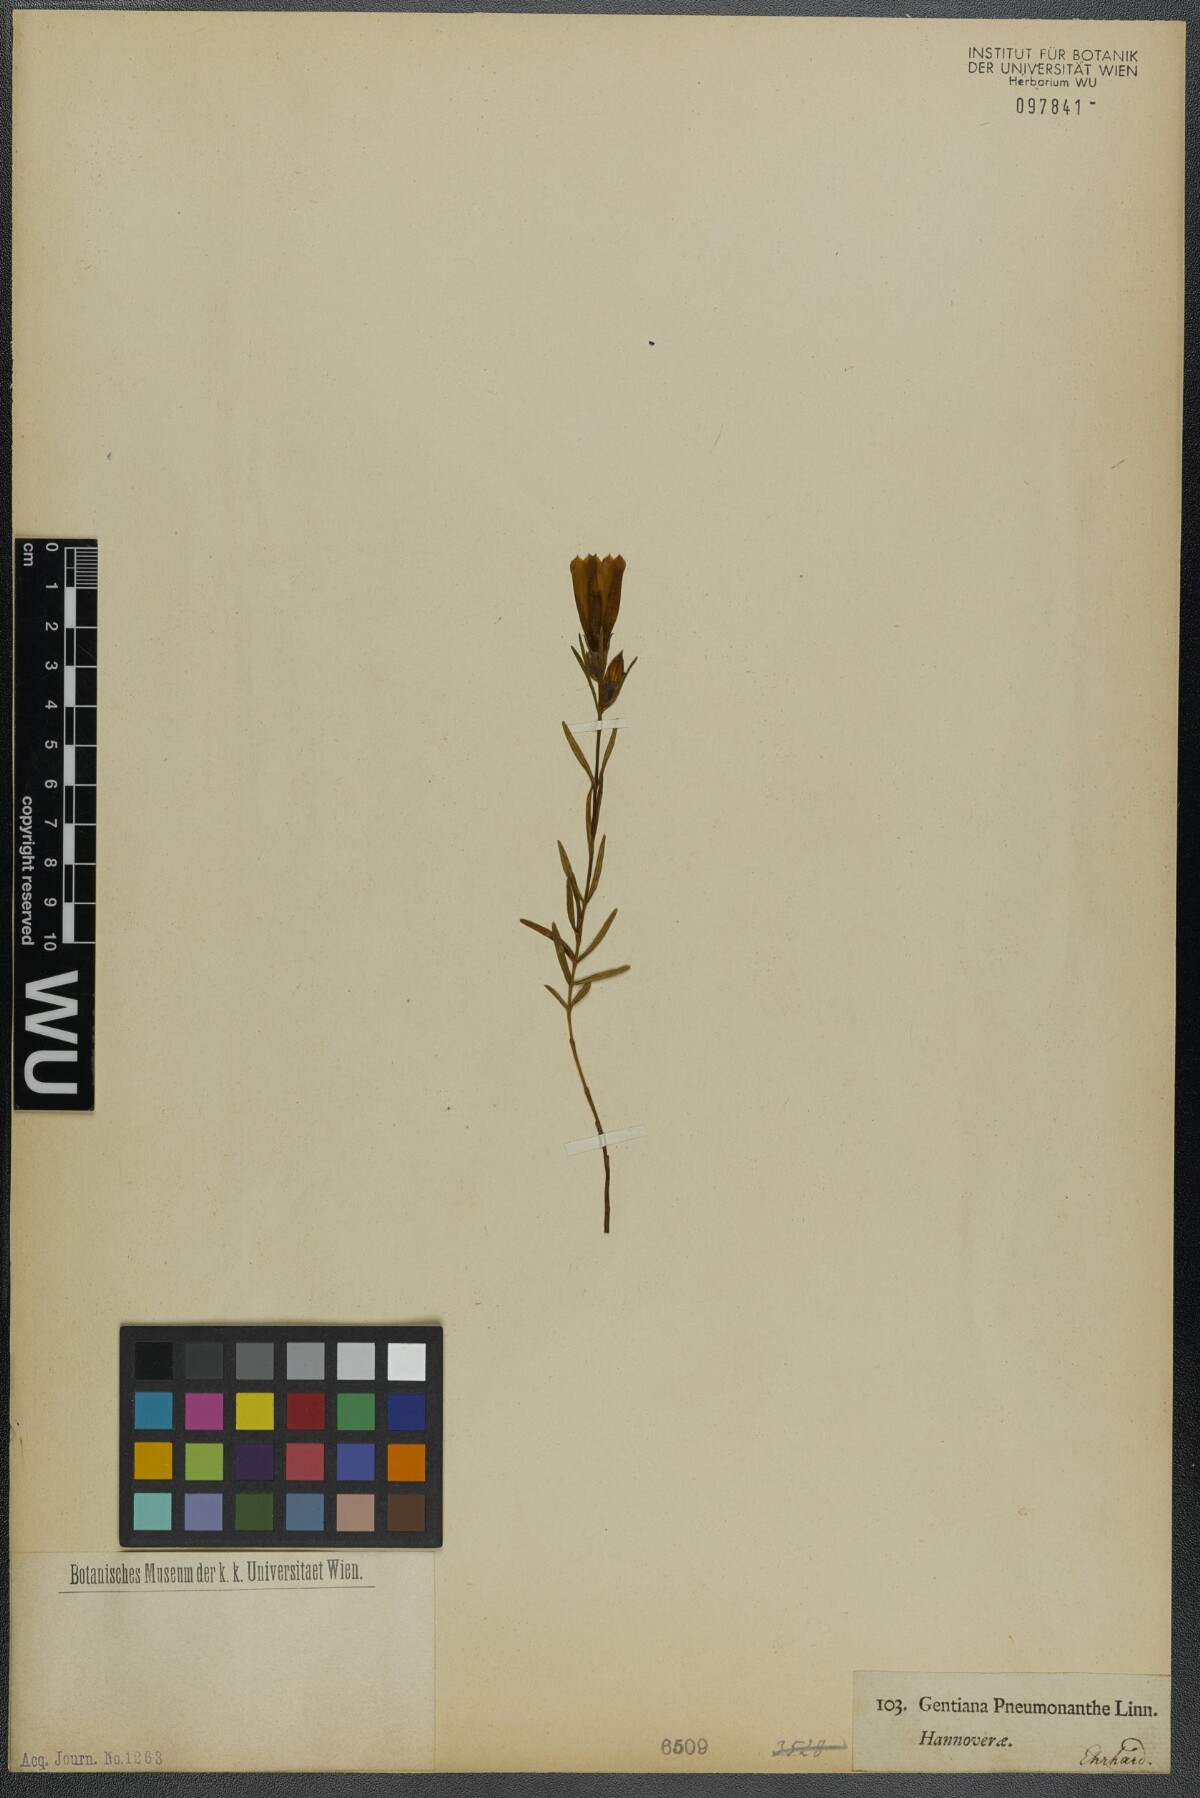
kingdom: Plantae
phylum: Tracheophyta
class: Magnoliopsida
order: Gentianales
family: Gentianaceae
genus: Gentiana
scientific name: Gentiana pneumonanthe
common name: Marsh gentian
